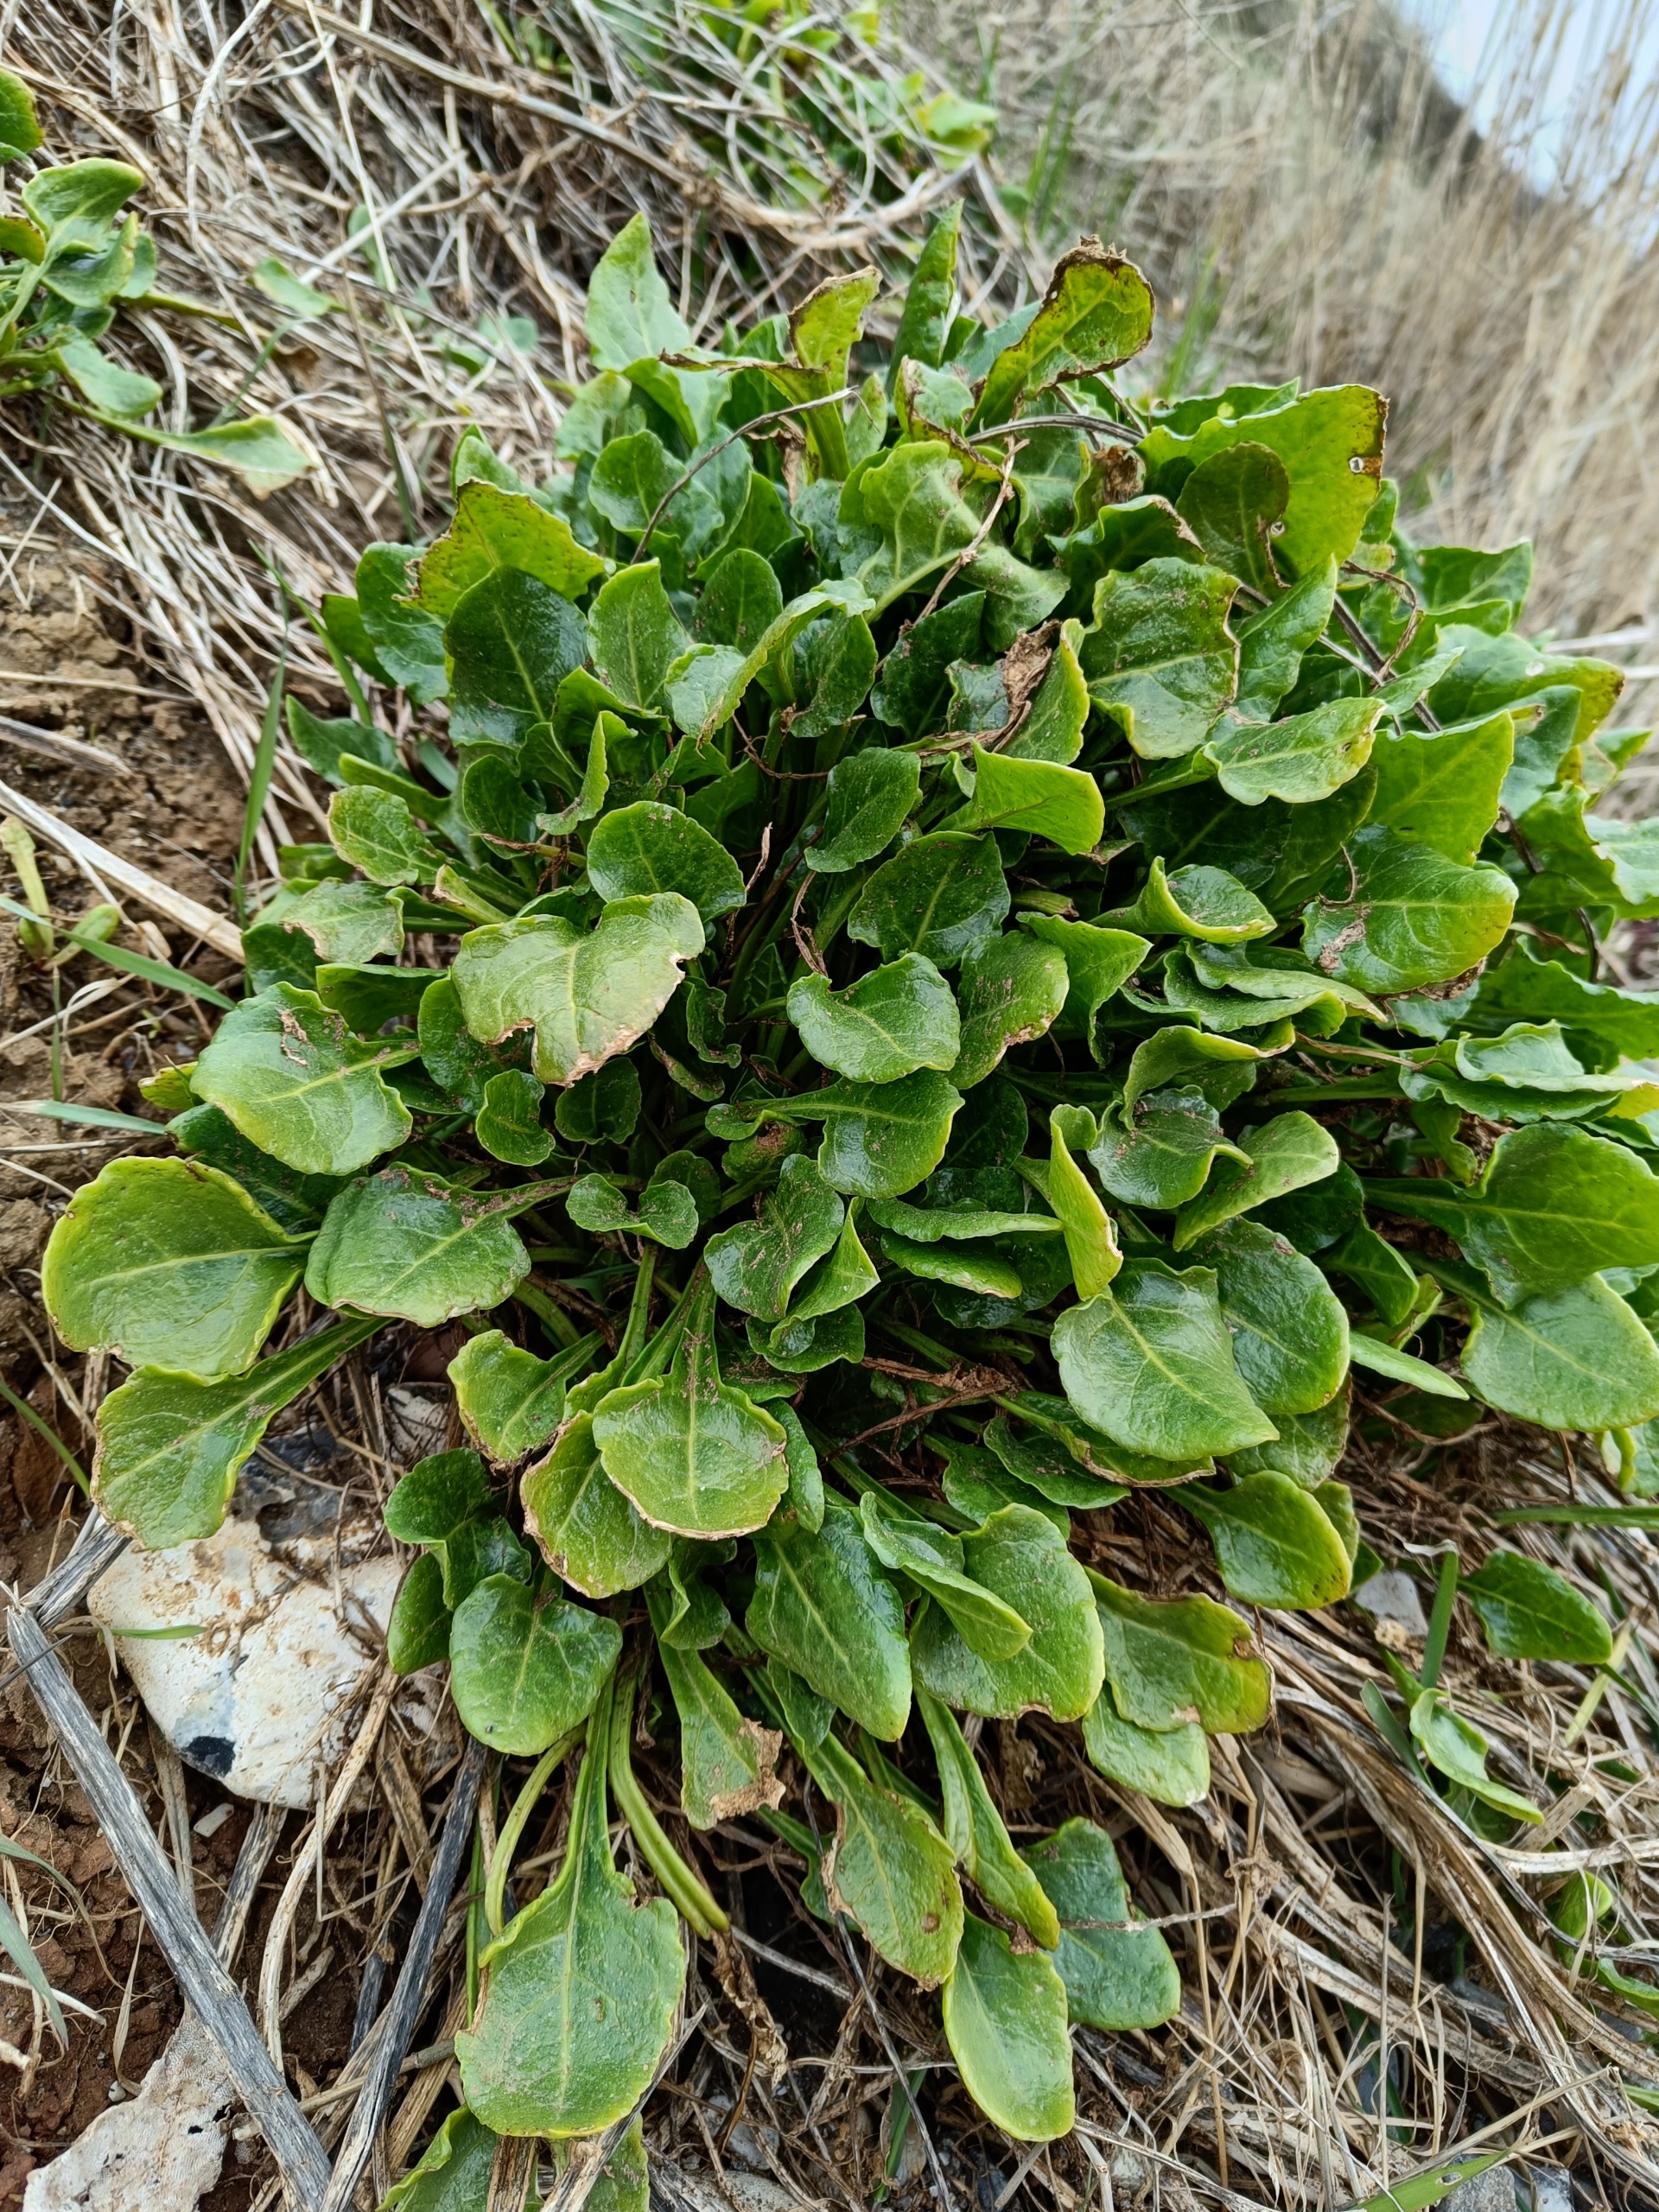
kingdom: Plantae
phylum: Tracheophyta
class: Magnoliopsida
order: Caryophyllales
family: Amaranthaceae
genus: Beta
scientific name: Beta maritima
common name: Strand-bede
